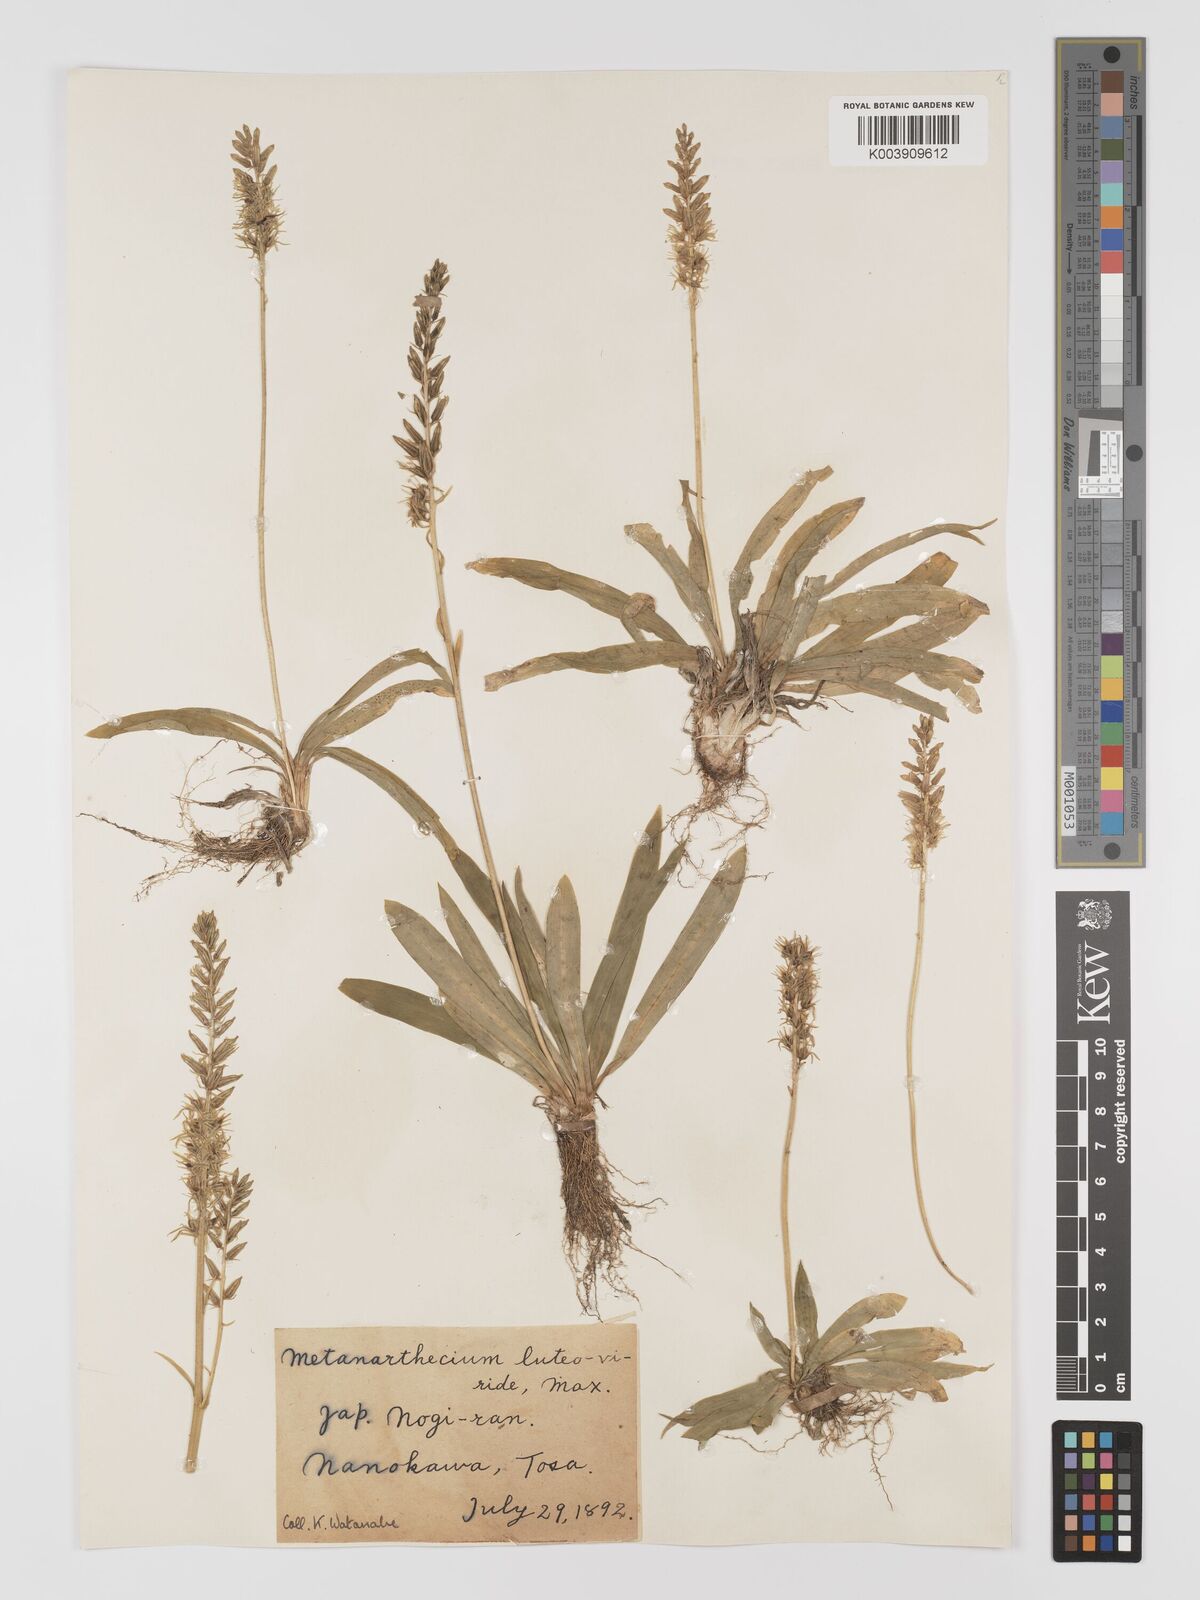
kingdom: Plantae
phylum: Tracheophyta
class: Liliopsida
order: Dioscoreales
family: Nartheciaceae
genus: Metanarthecium
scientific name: Metanarthecium luteoviride
